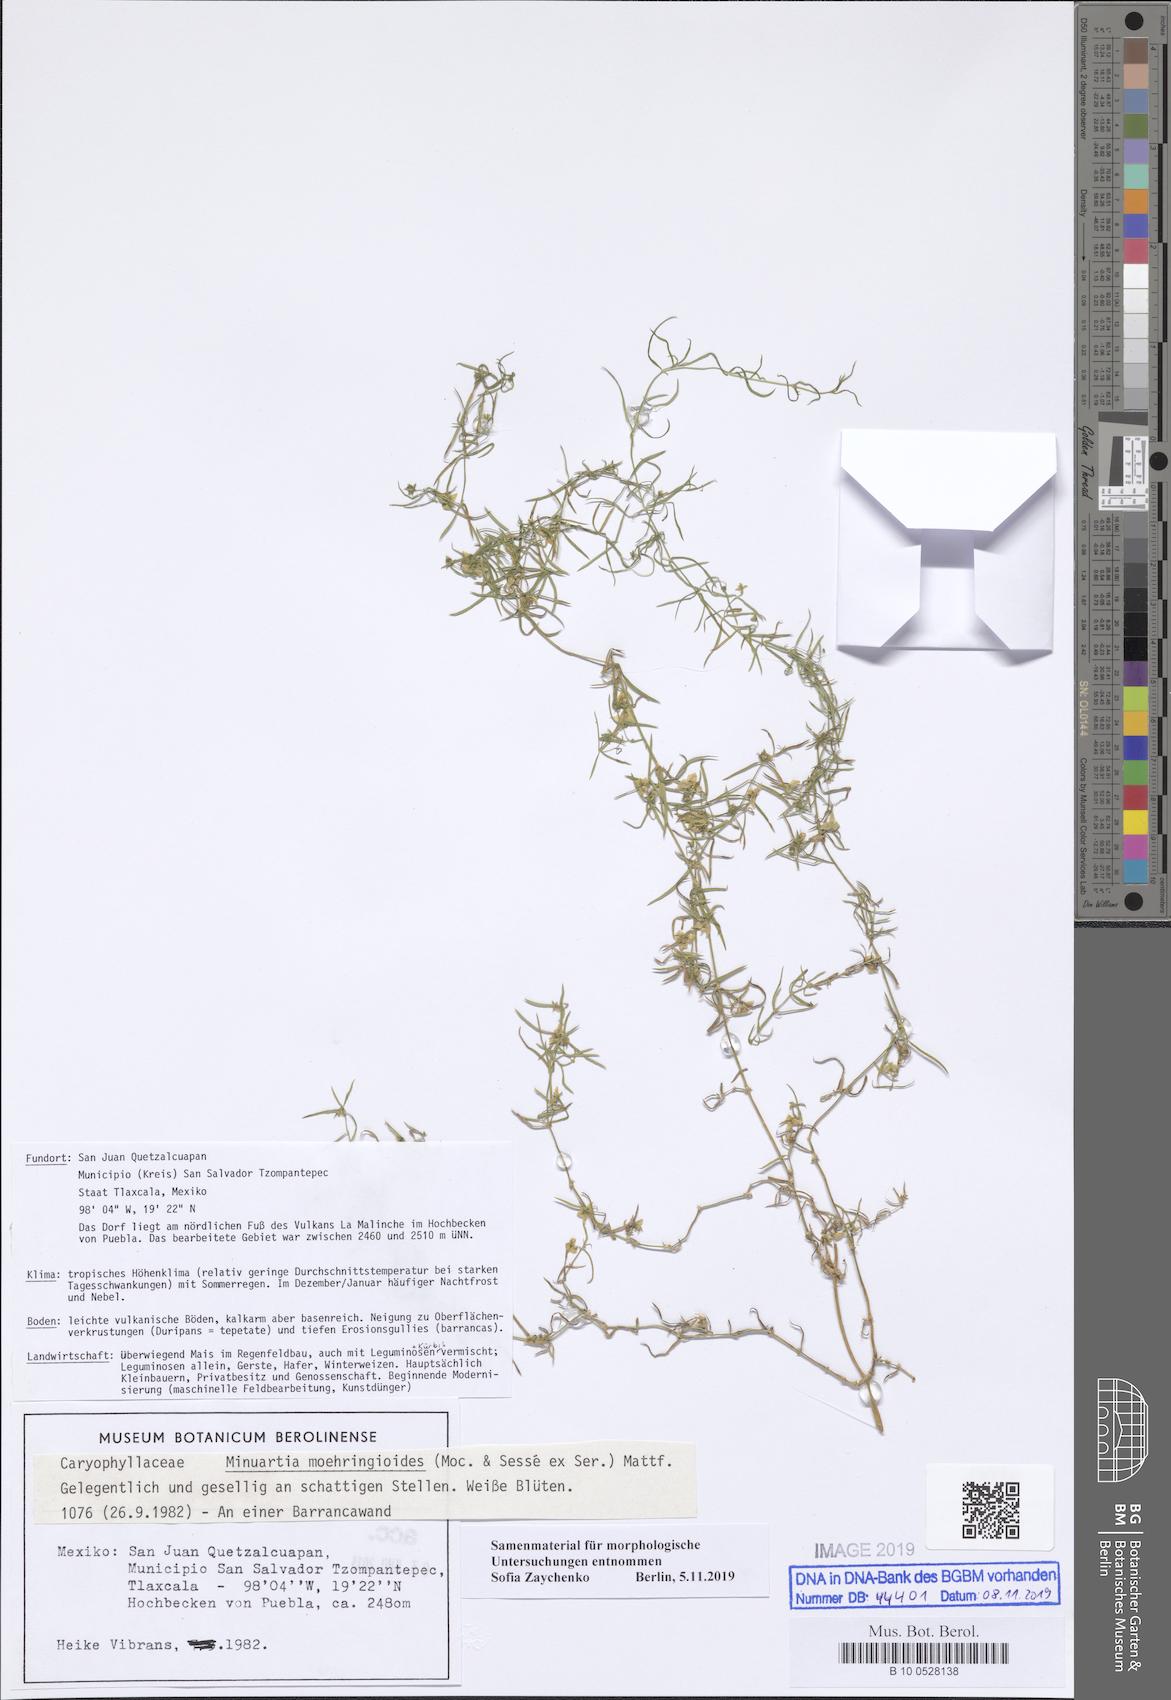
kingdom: Plantae
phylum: Tracheophyta
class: Magnoliopsida
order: Caryophyllales
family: Caryophyllaceae
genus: Triplateia
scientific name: Triplateia moehringiodes
